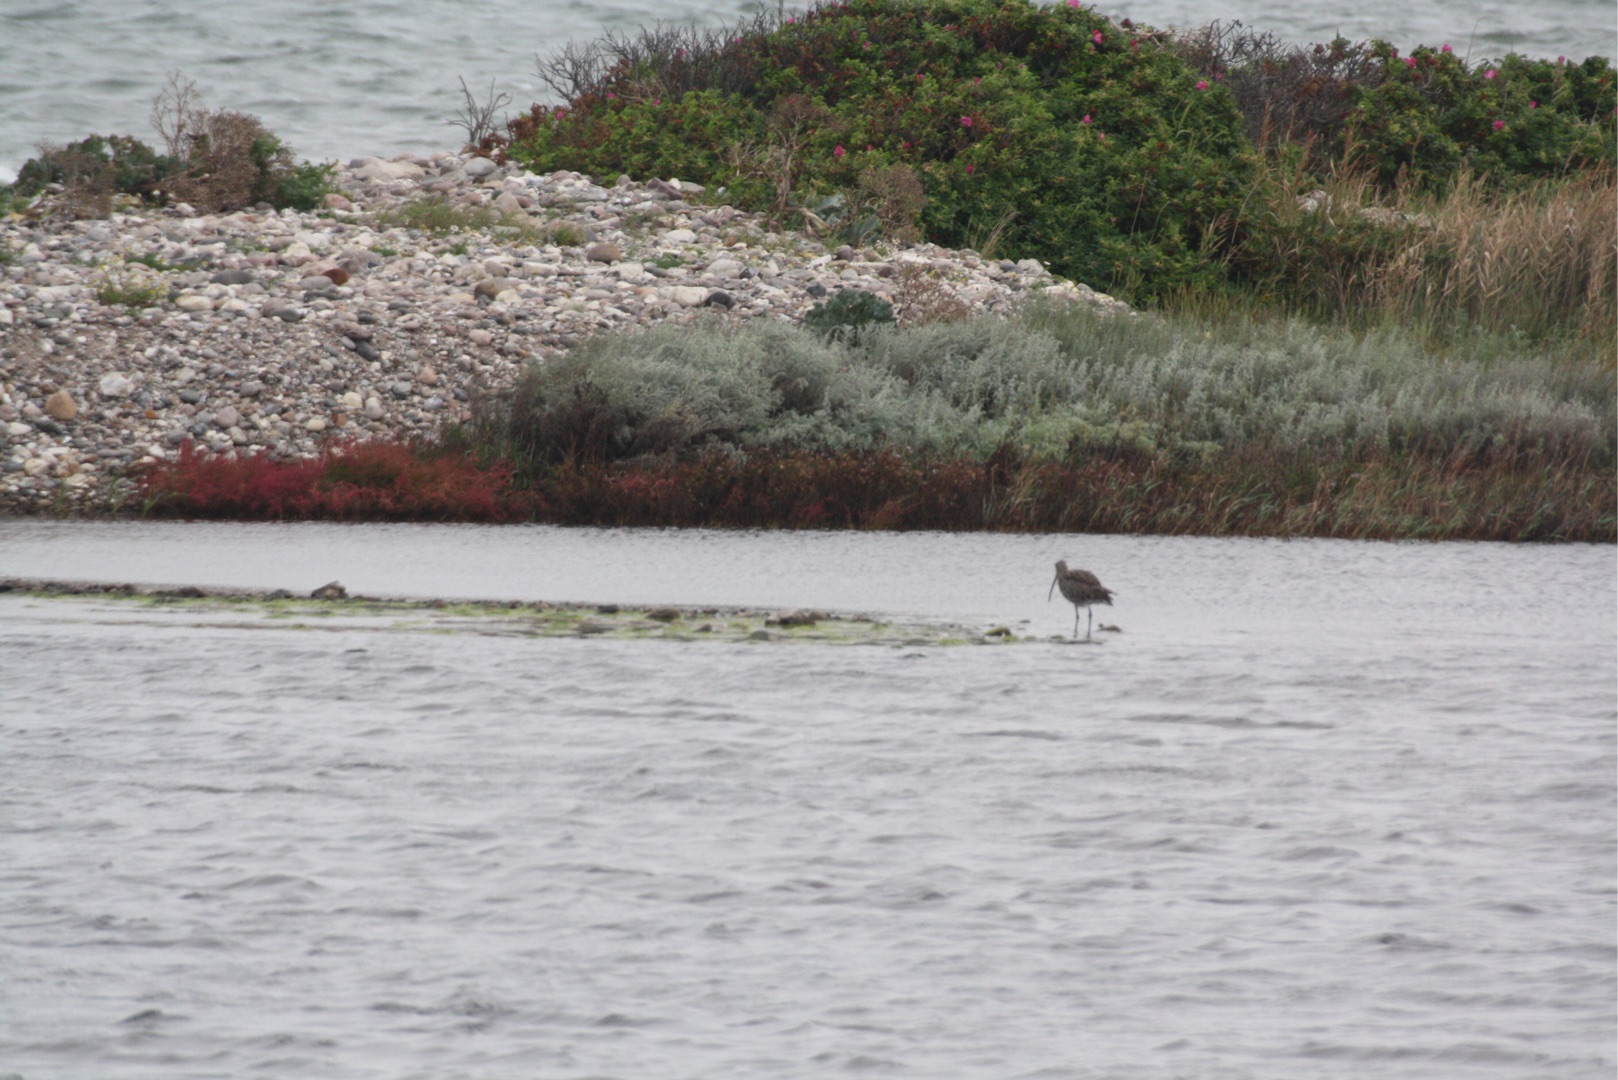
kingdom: Animalia
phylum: Chordata
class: Aves
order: Charadriiformes
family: Scolopacidae
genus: Numenius
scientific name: Numenius arquata
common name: Storspove
